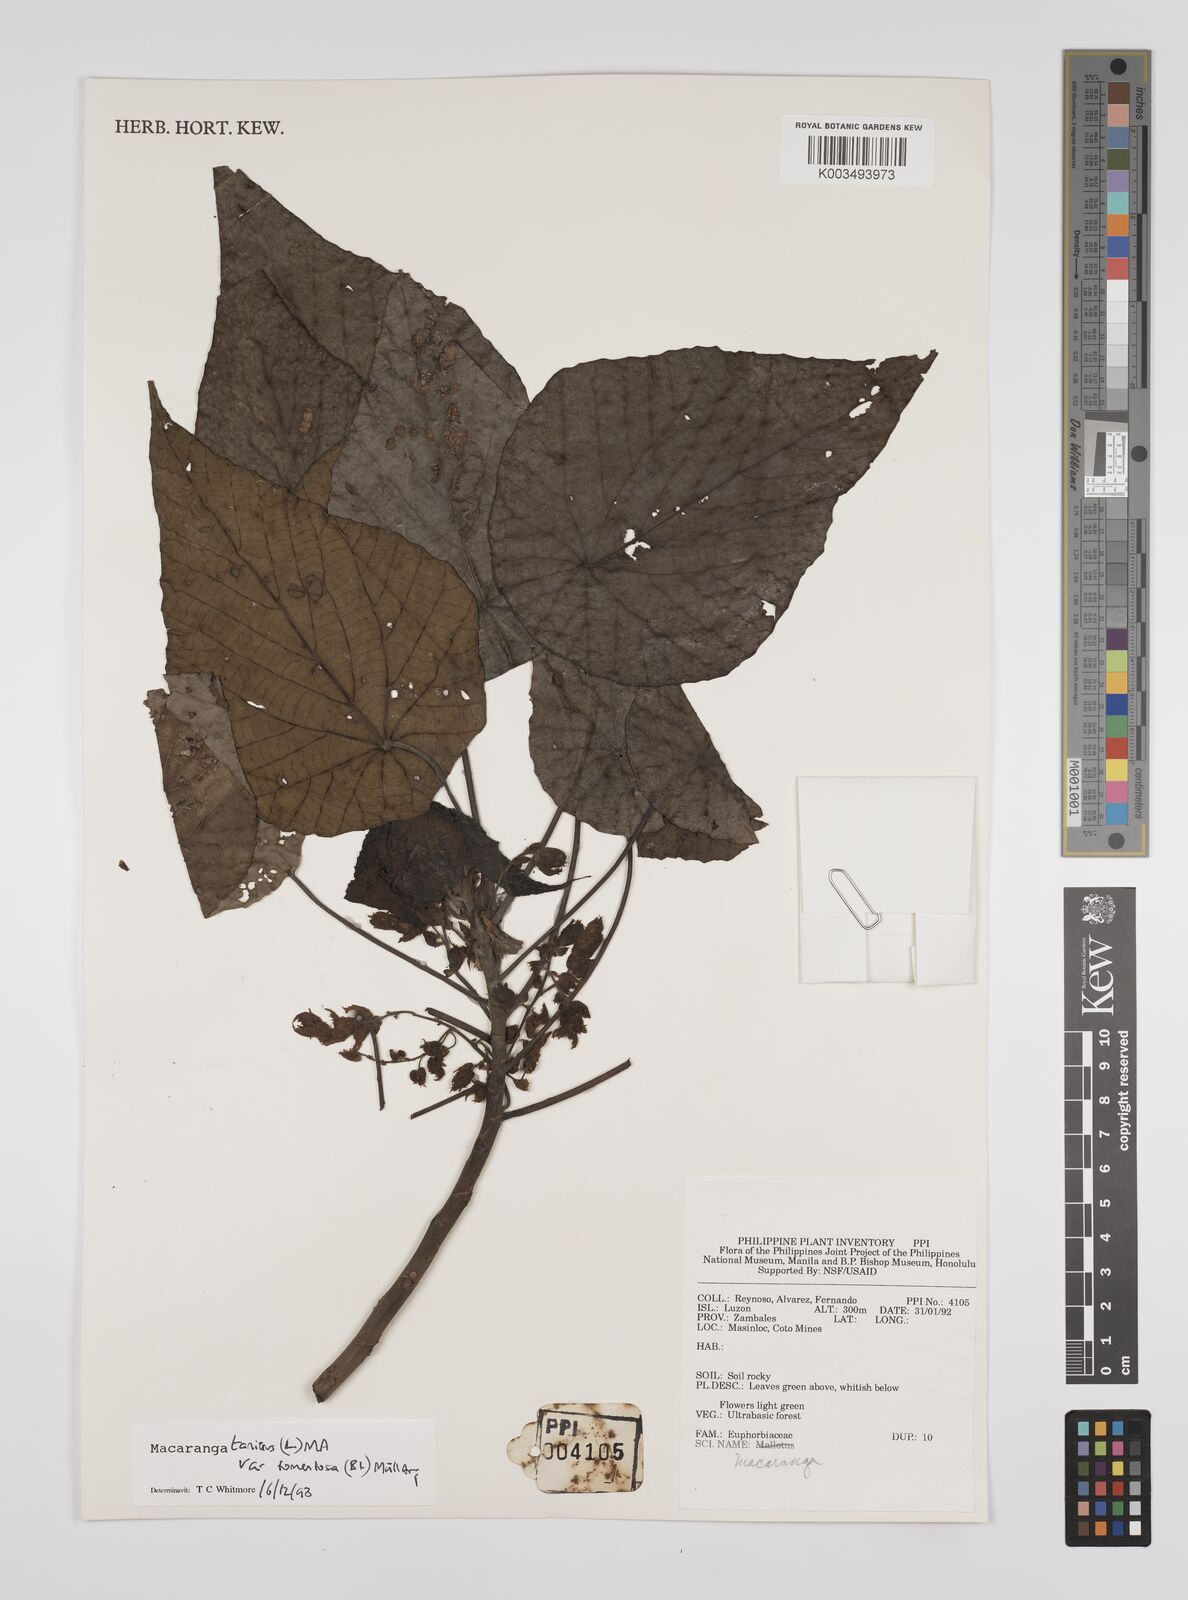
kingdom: Plantae
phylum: Tracheophyta
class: Magnoliopsida
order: Malpighiales
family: Euphorbiaceae
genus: Macaranga
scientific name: Macaranga tanarius
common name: Parasol leaf tree
